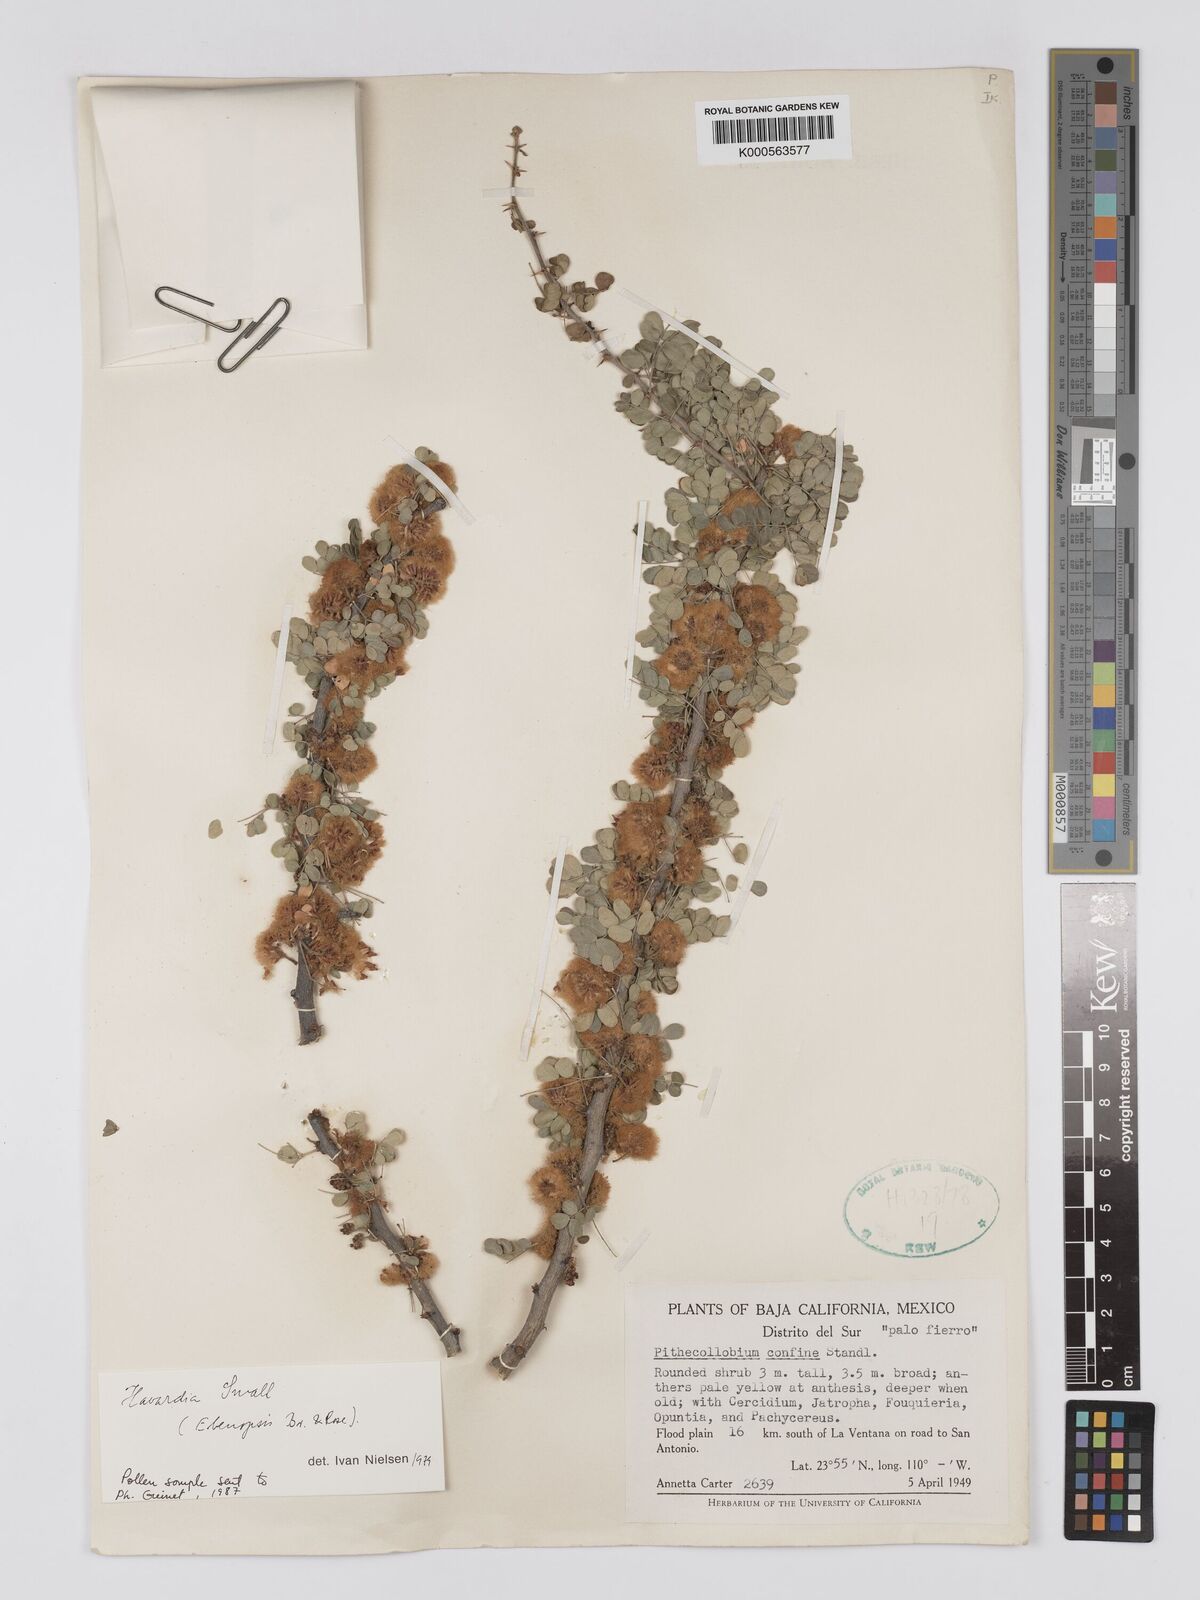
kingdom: Plantae
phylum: Tracheophyta
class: Magnoliopsida
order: Fabales
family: Fabaceae
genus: Chloroleucon
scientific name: Chloroleucon
